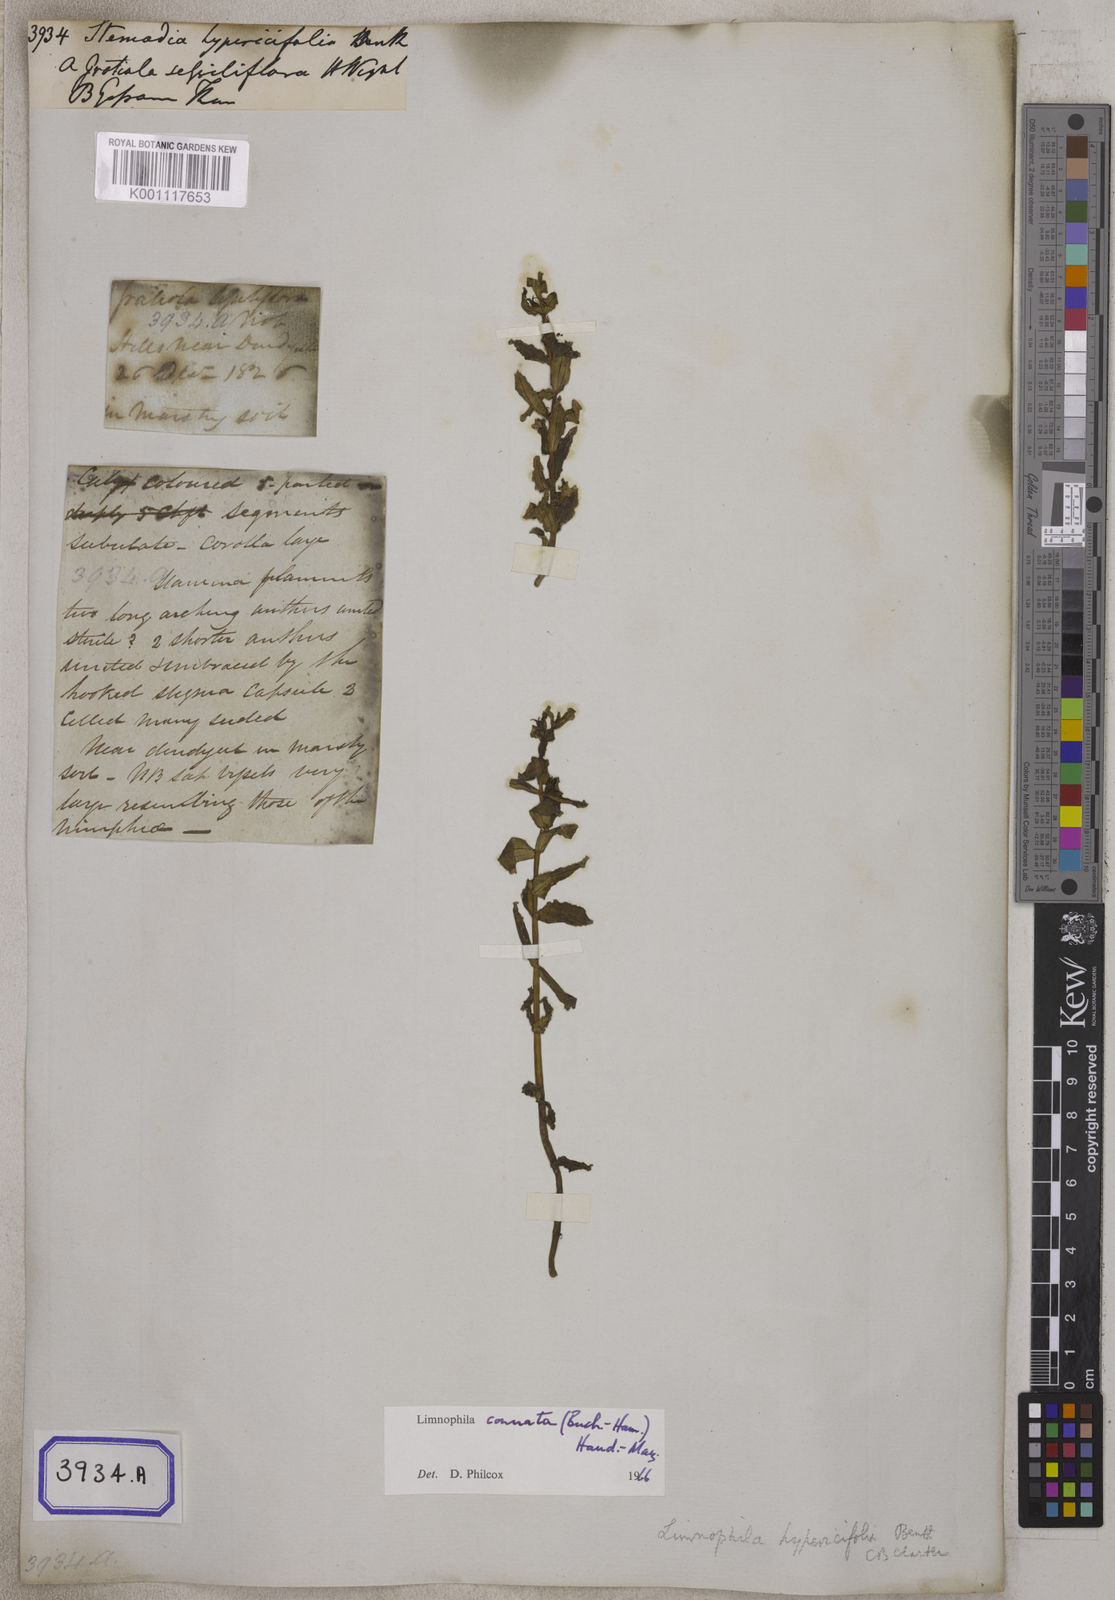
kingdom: Plantae
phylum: Tracheophyta
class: Magnoliopsida
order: Lamiales
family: Plantaginaceae
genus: Stemodia
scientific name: Stemodia
